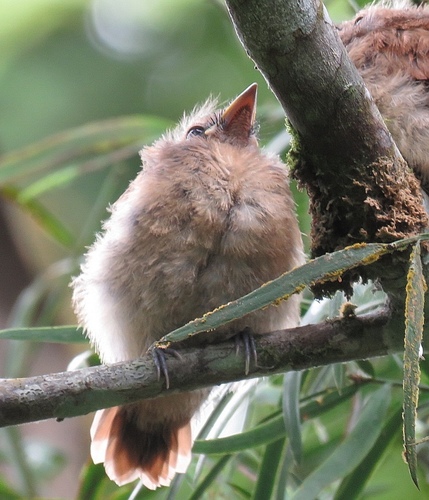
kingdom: Animalia
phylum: Chordata
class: Aves
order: Passeriformes
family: Monarchidae
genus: Terpsiphone
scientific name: Terpsiphone atrochalybeia
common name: Sao tome paradise flycatcher
